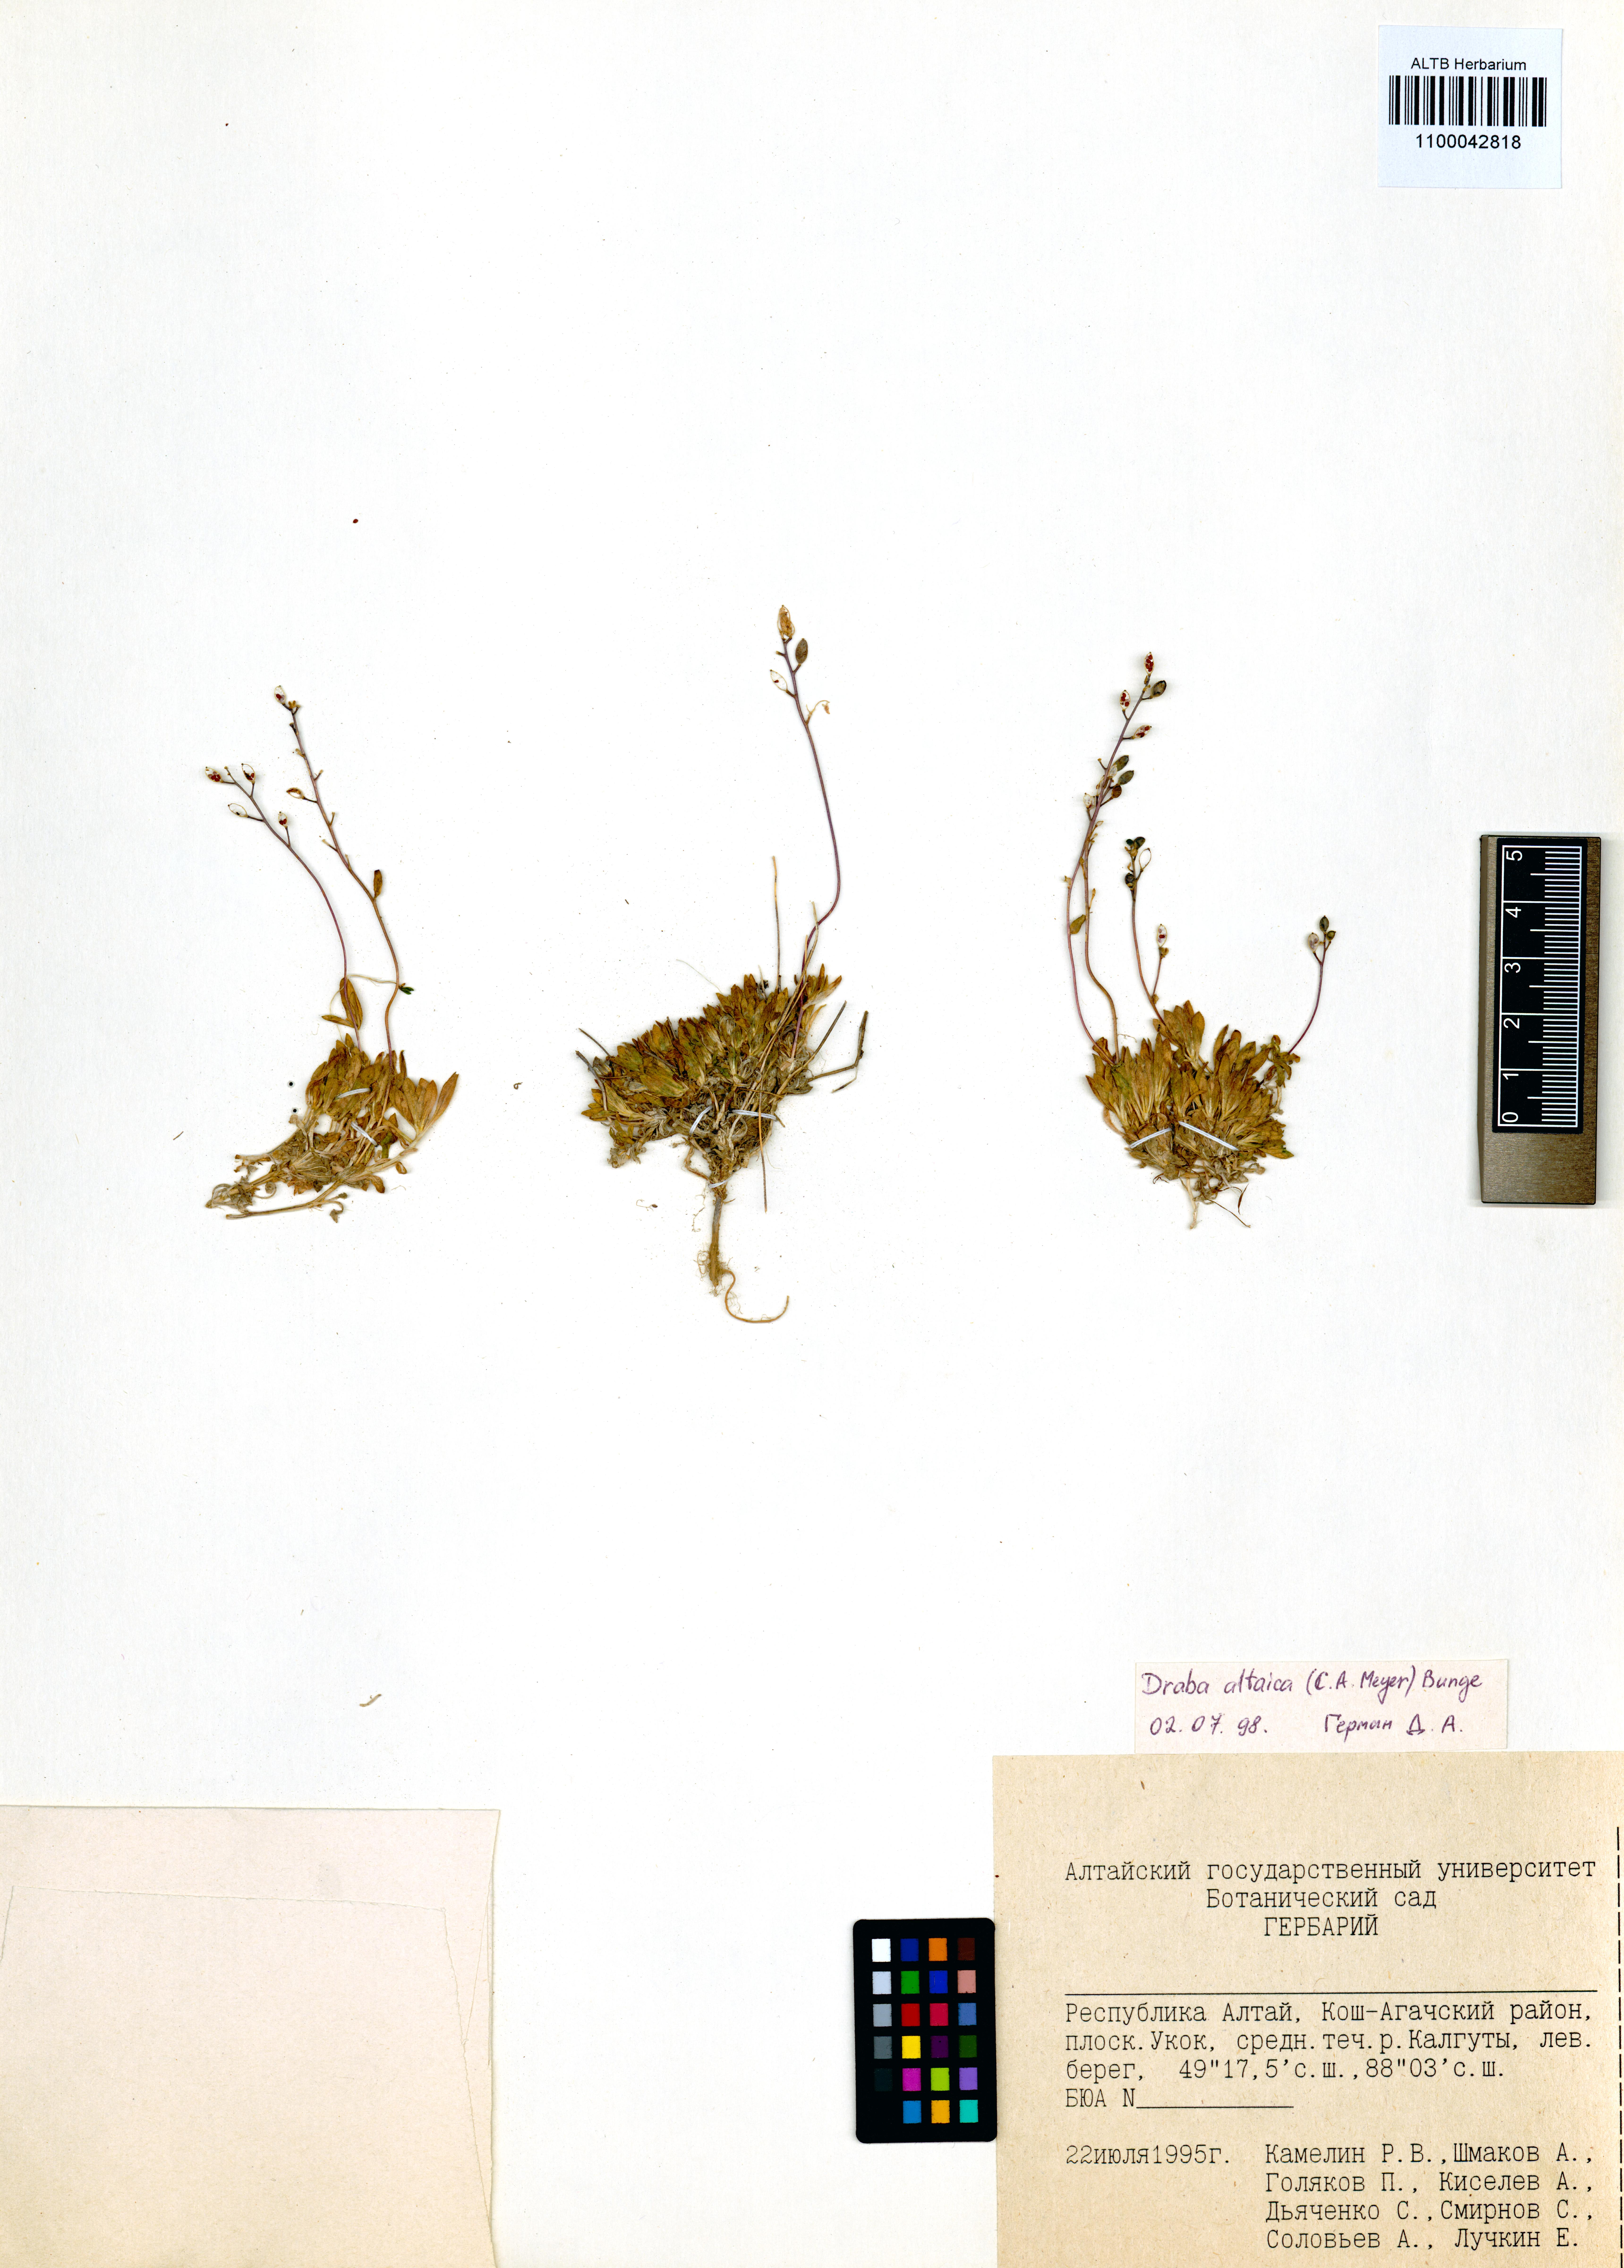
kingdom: Plantae
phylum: Tracheophyta
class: Magnoliopsida
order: Brassicales
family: Brassicaceae
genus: Draba
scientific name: Draba altaica
